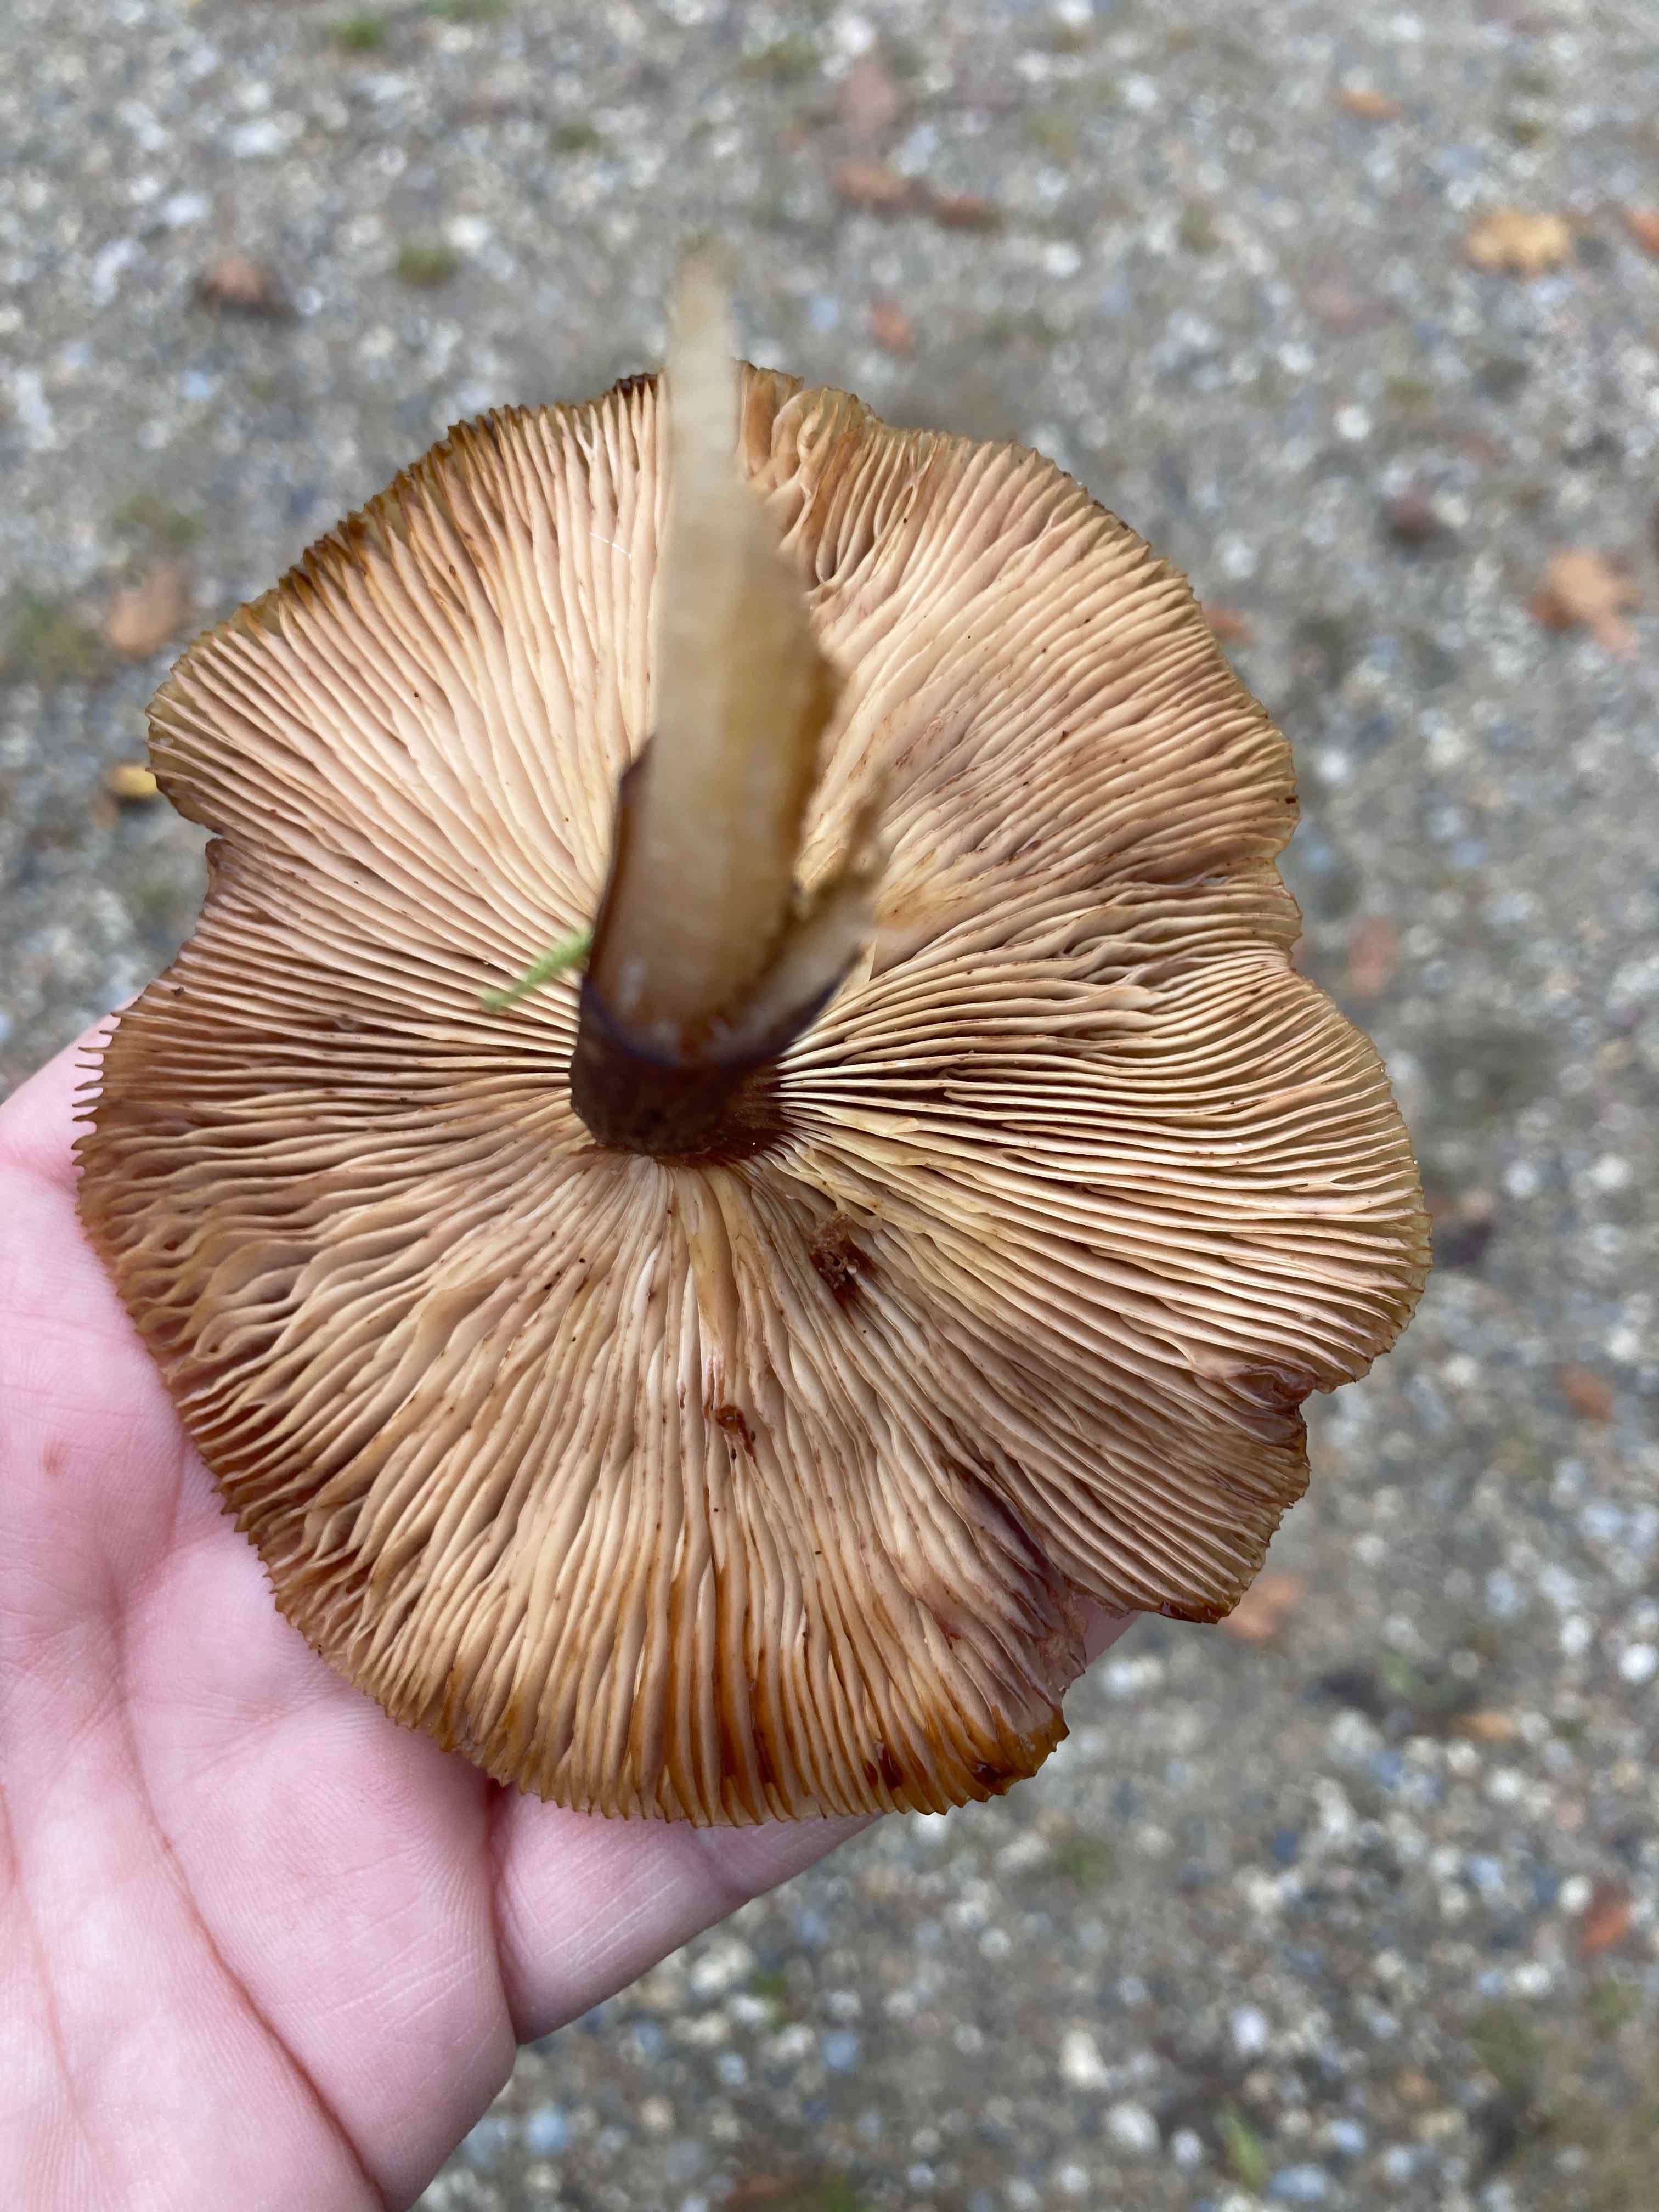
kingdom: Fungi
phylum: Basidiomycota
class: Agaricomycetes
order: Agaricales
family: Physalacriaceae
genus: Armillaria
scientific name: Armillaria
